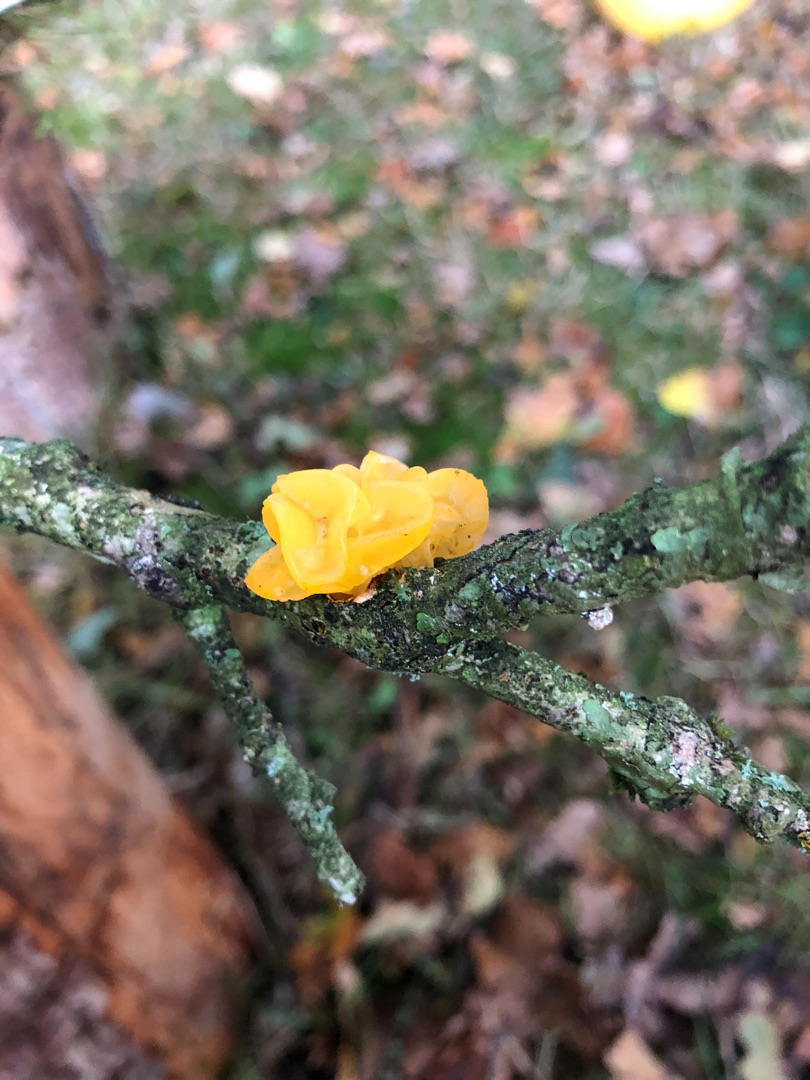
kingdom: Fungi
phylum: Basidiomycota
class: Tremellomycetes
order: Tremellales
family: Tremellaceae
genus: Tremella
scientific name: Tremella mesenterica
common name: Gul bævresvamp
